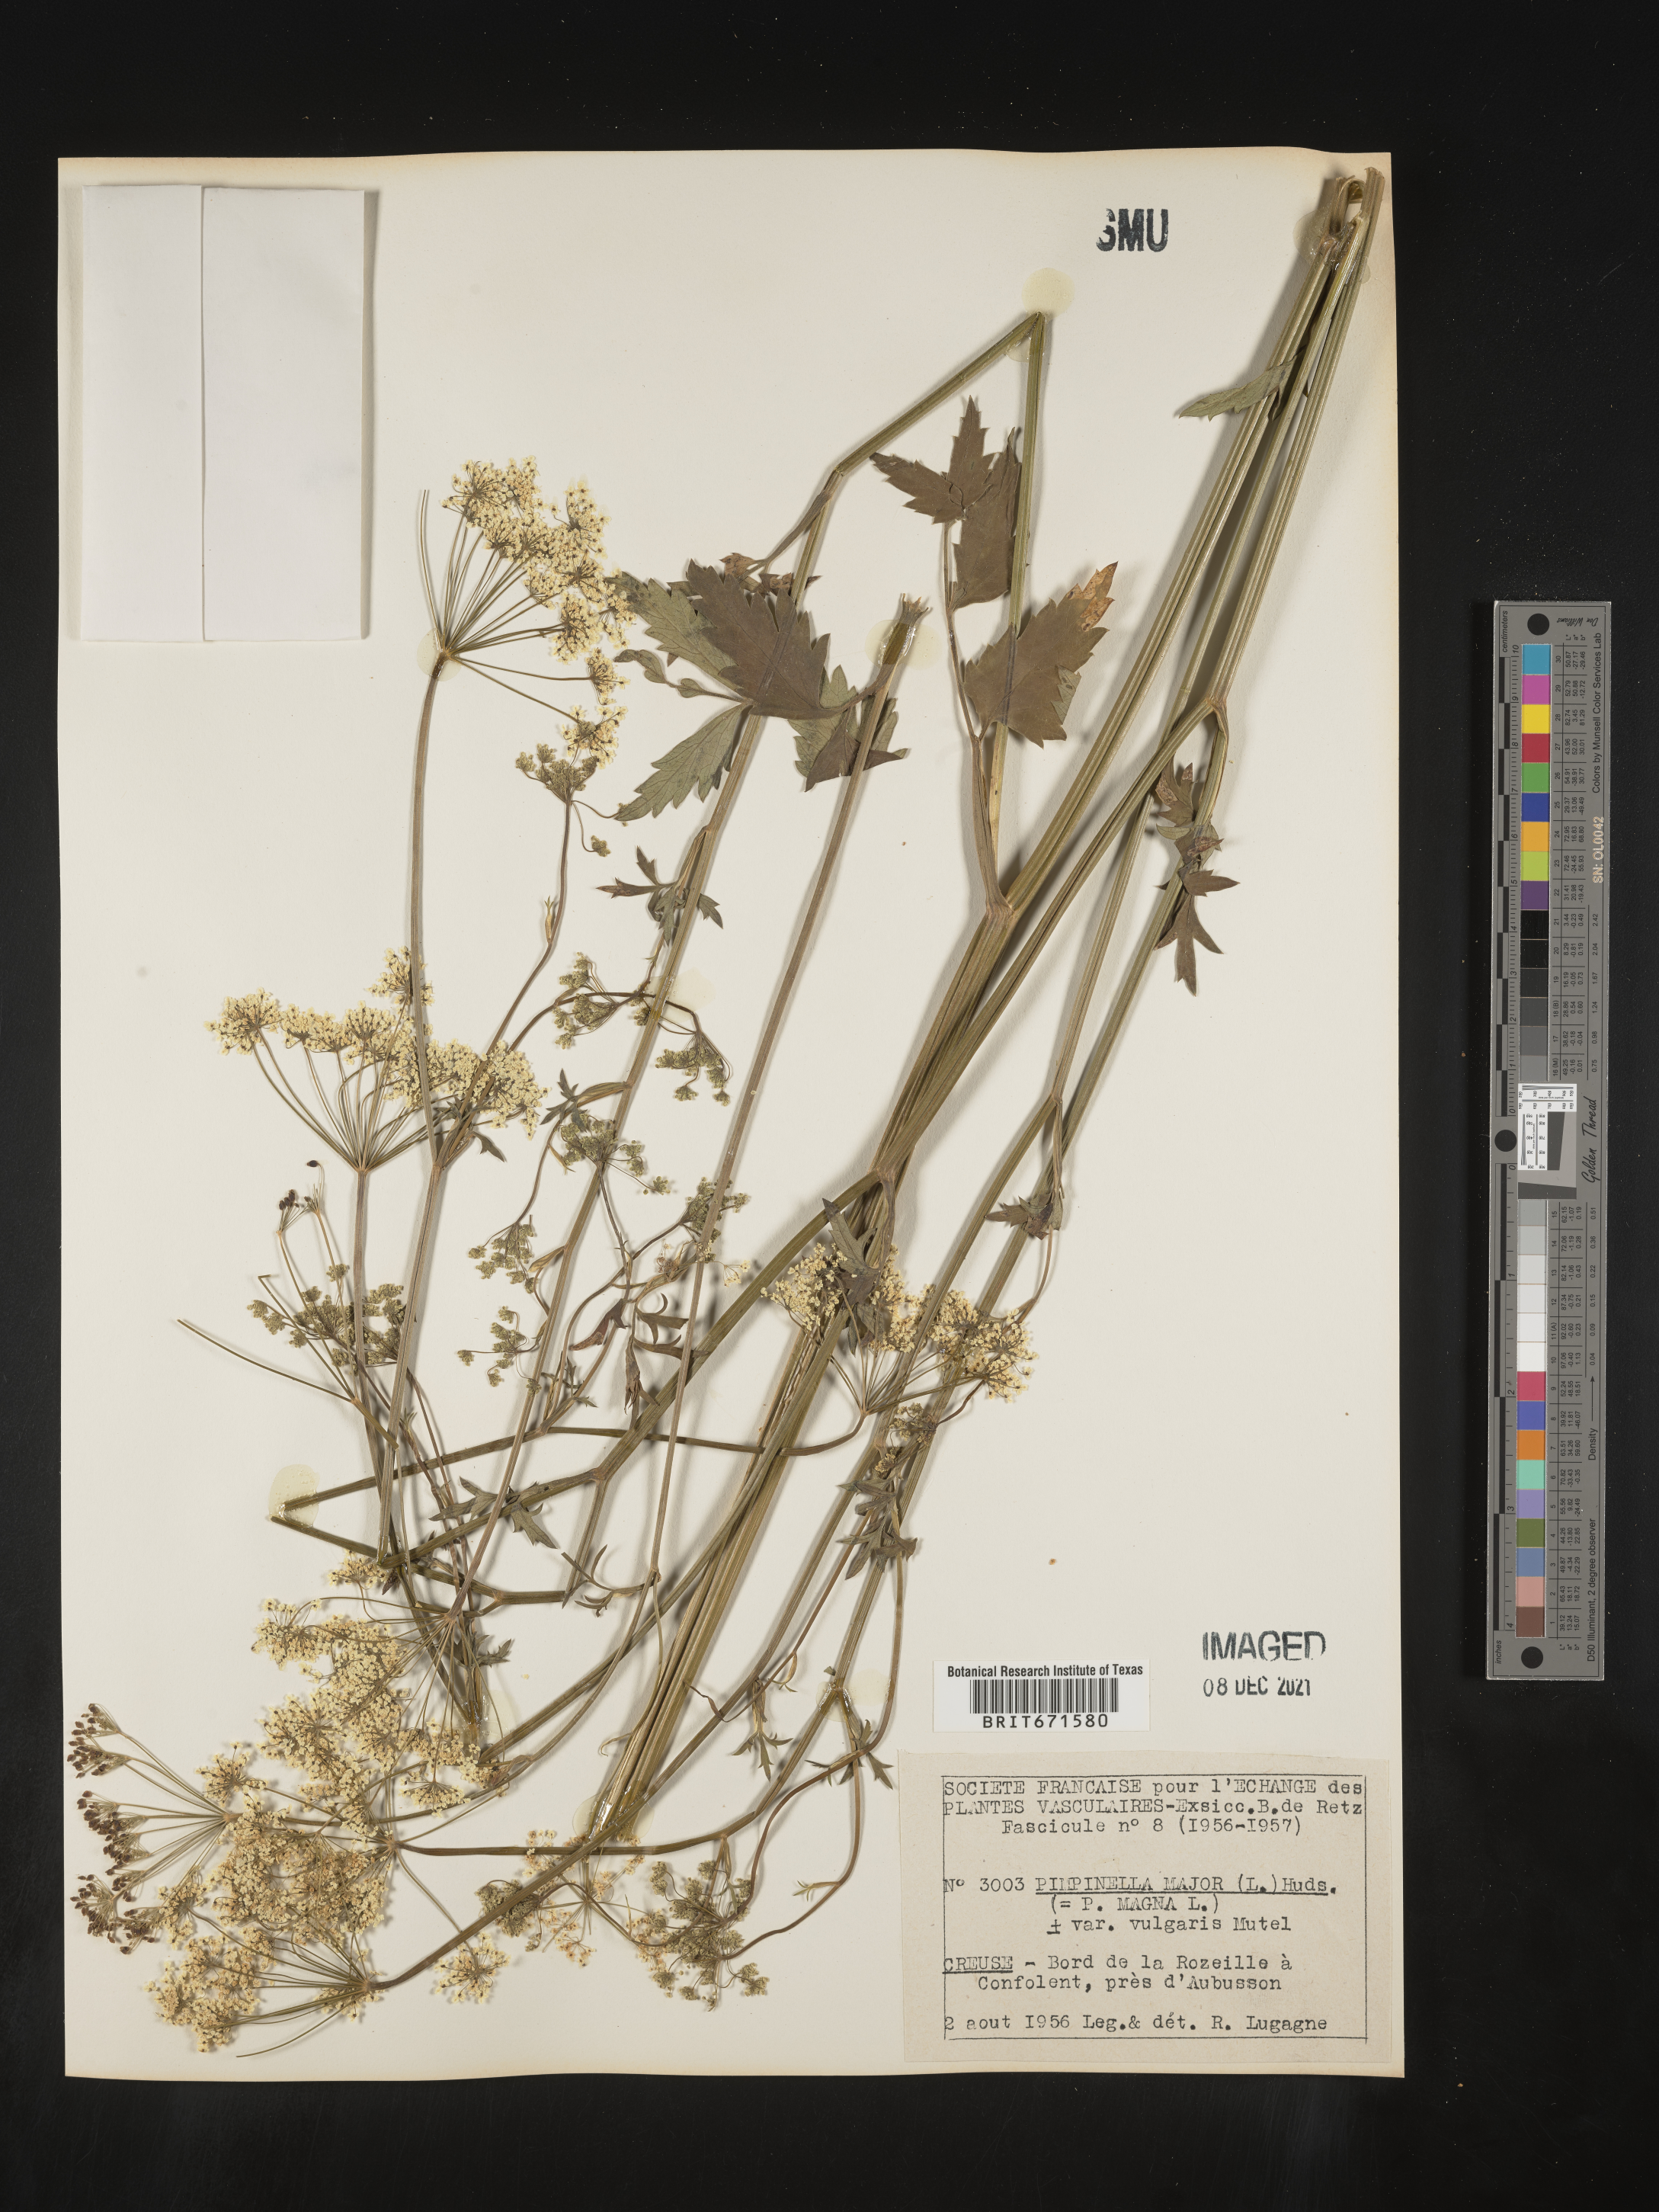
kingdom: Plantae
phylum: Tracheophyta
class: Magnoliopsida
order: Apiales
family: Apiaceae
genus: Pimpinella
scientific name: Pimpinella major
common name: Greater burnet-saxifrage
